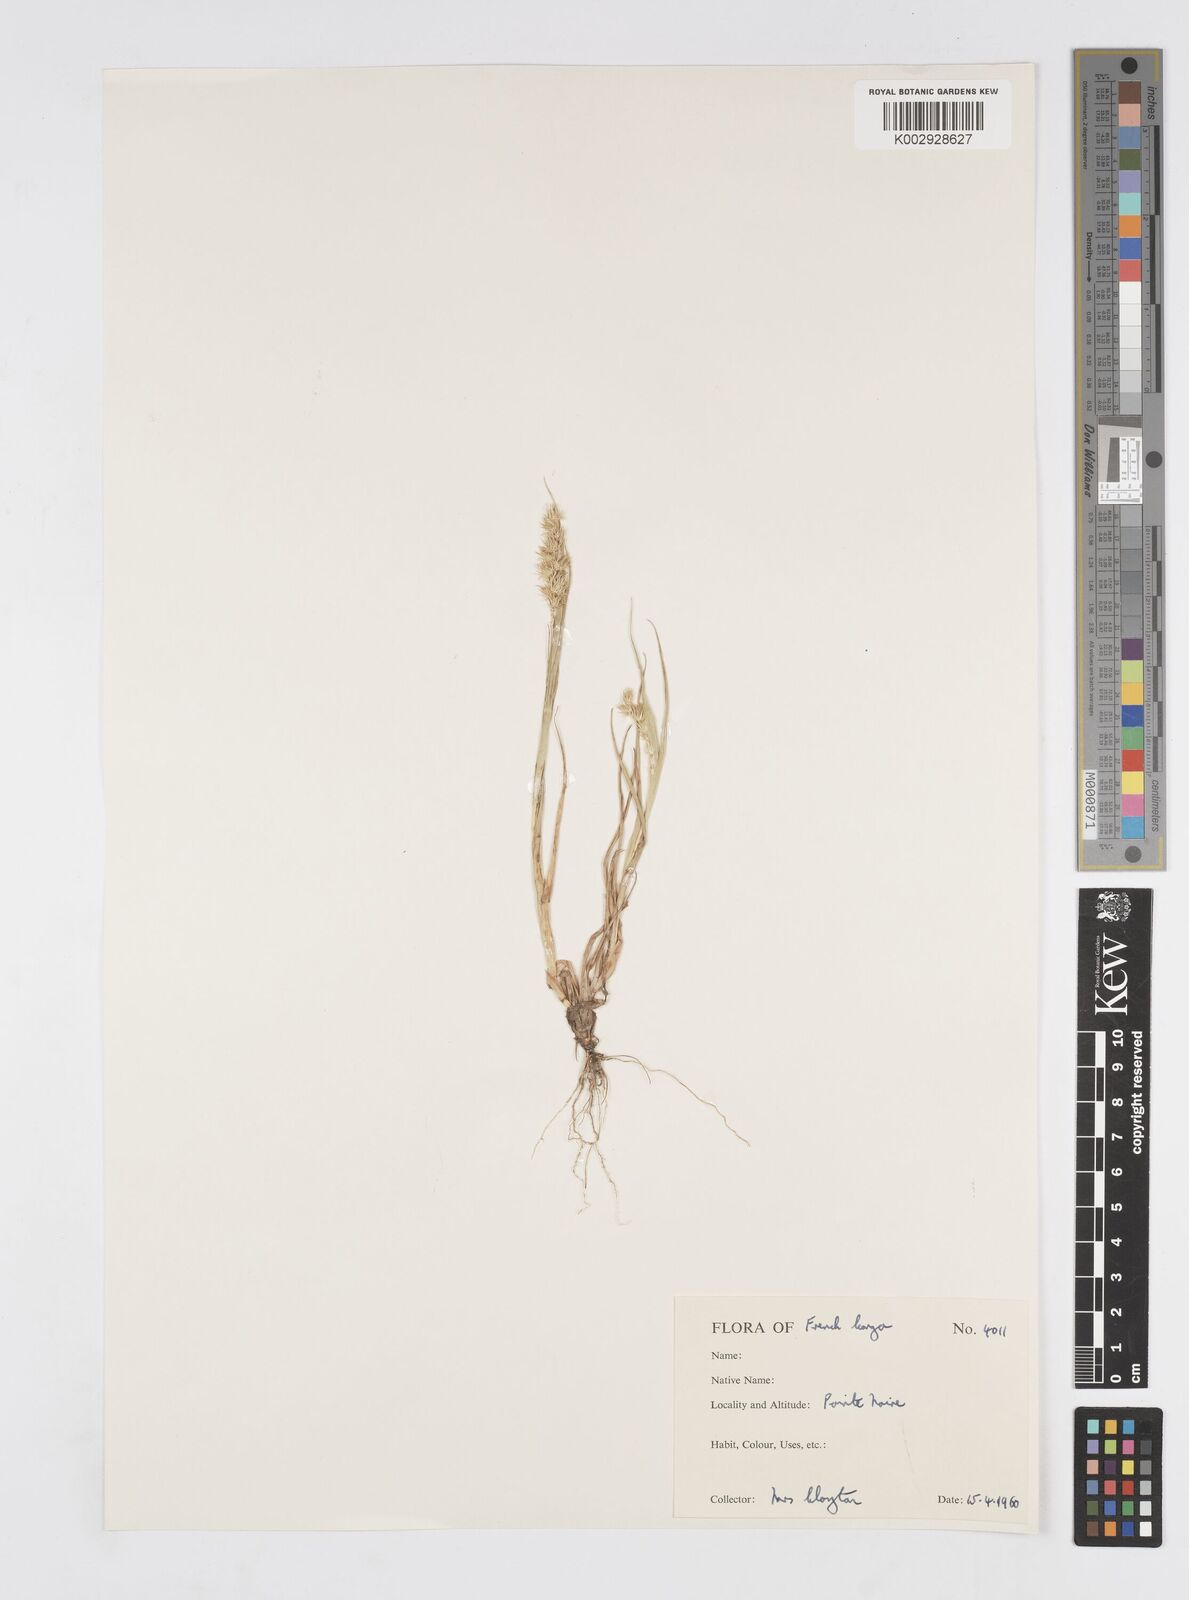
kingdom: Plantae
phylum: Tracheophyta
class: Liliopsida
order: Poales
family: Poaceae
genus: Cenchrus
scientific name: Cenchrus biflorus
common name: Indian sandbur
